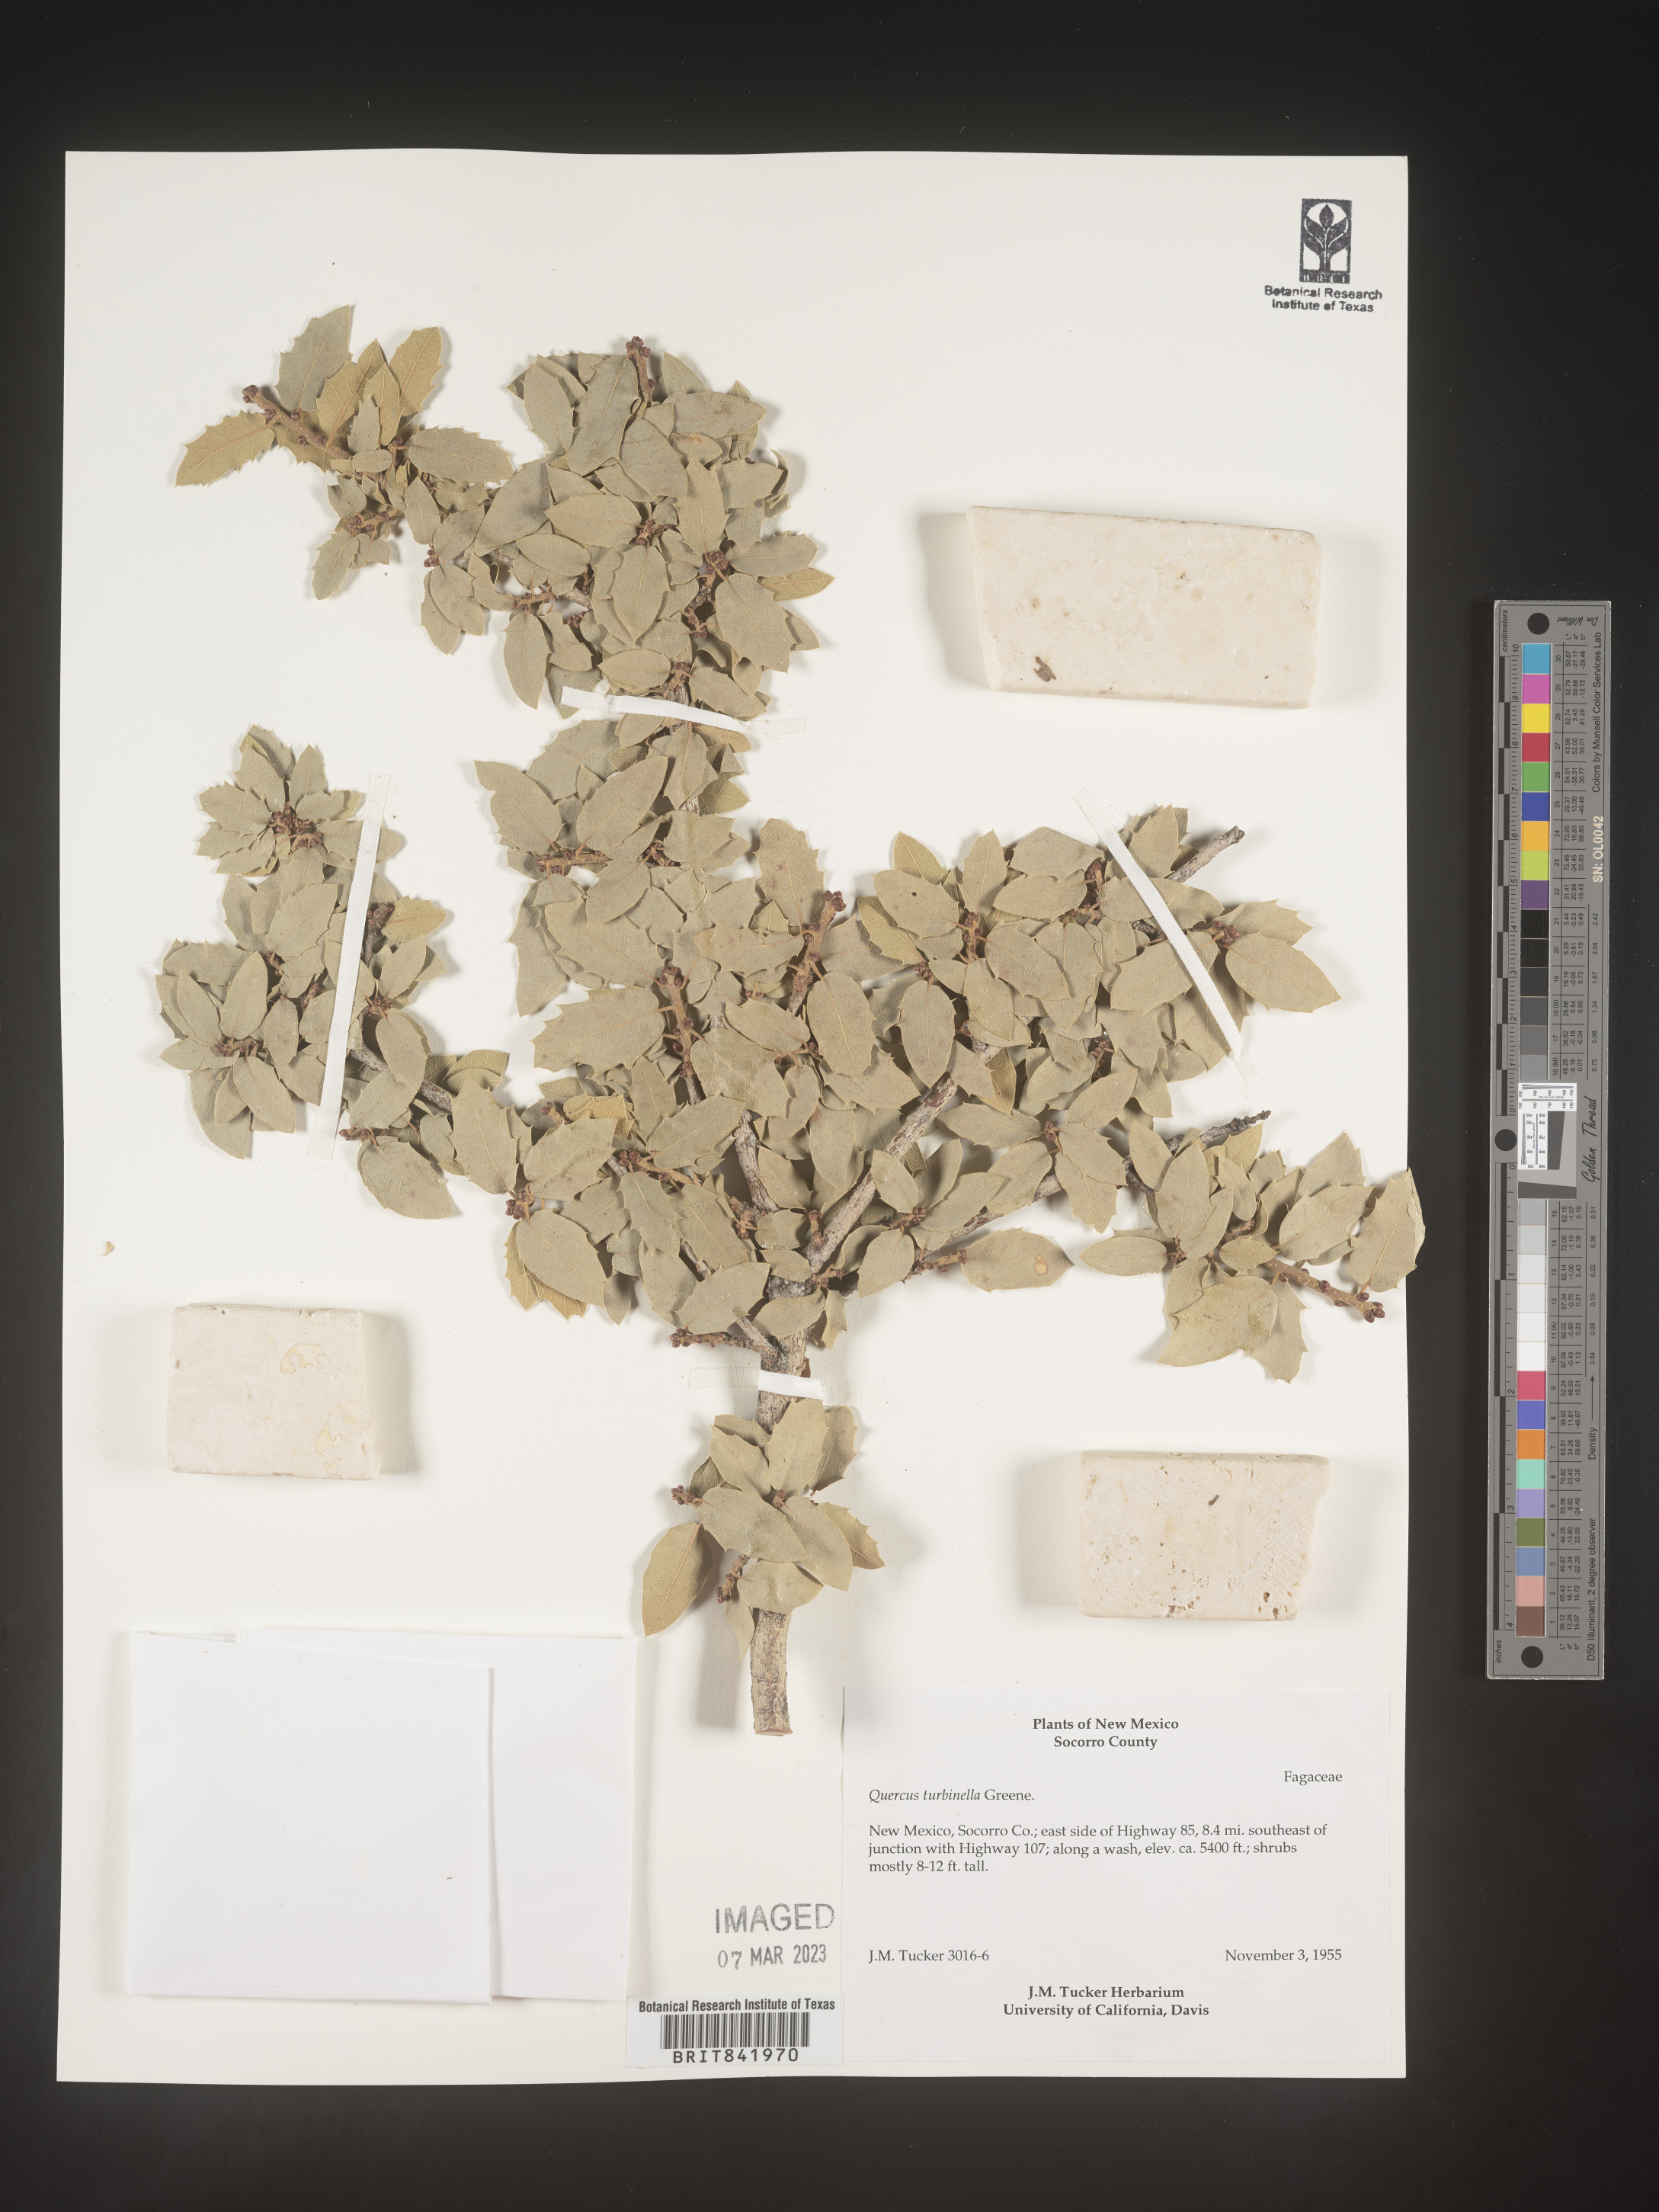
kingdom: Plantae
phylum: Tracheophyta
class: Magnoliopsida
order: Fagales
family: Fagaceae
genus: Quercus
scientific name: Quercus turbinella
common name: Sonoran scrub oak
